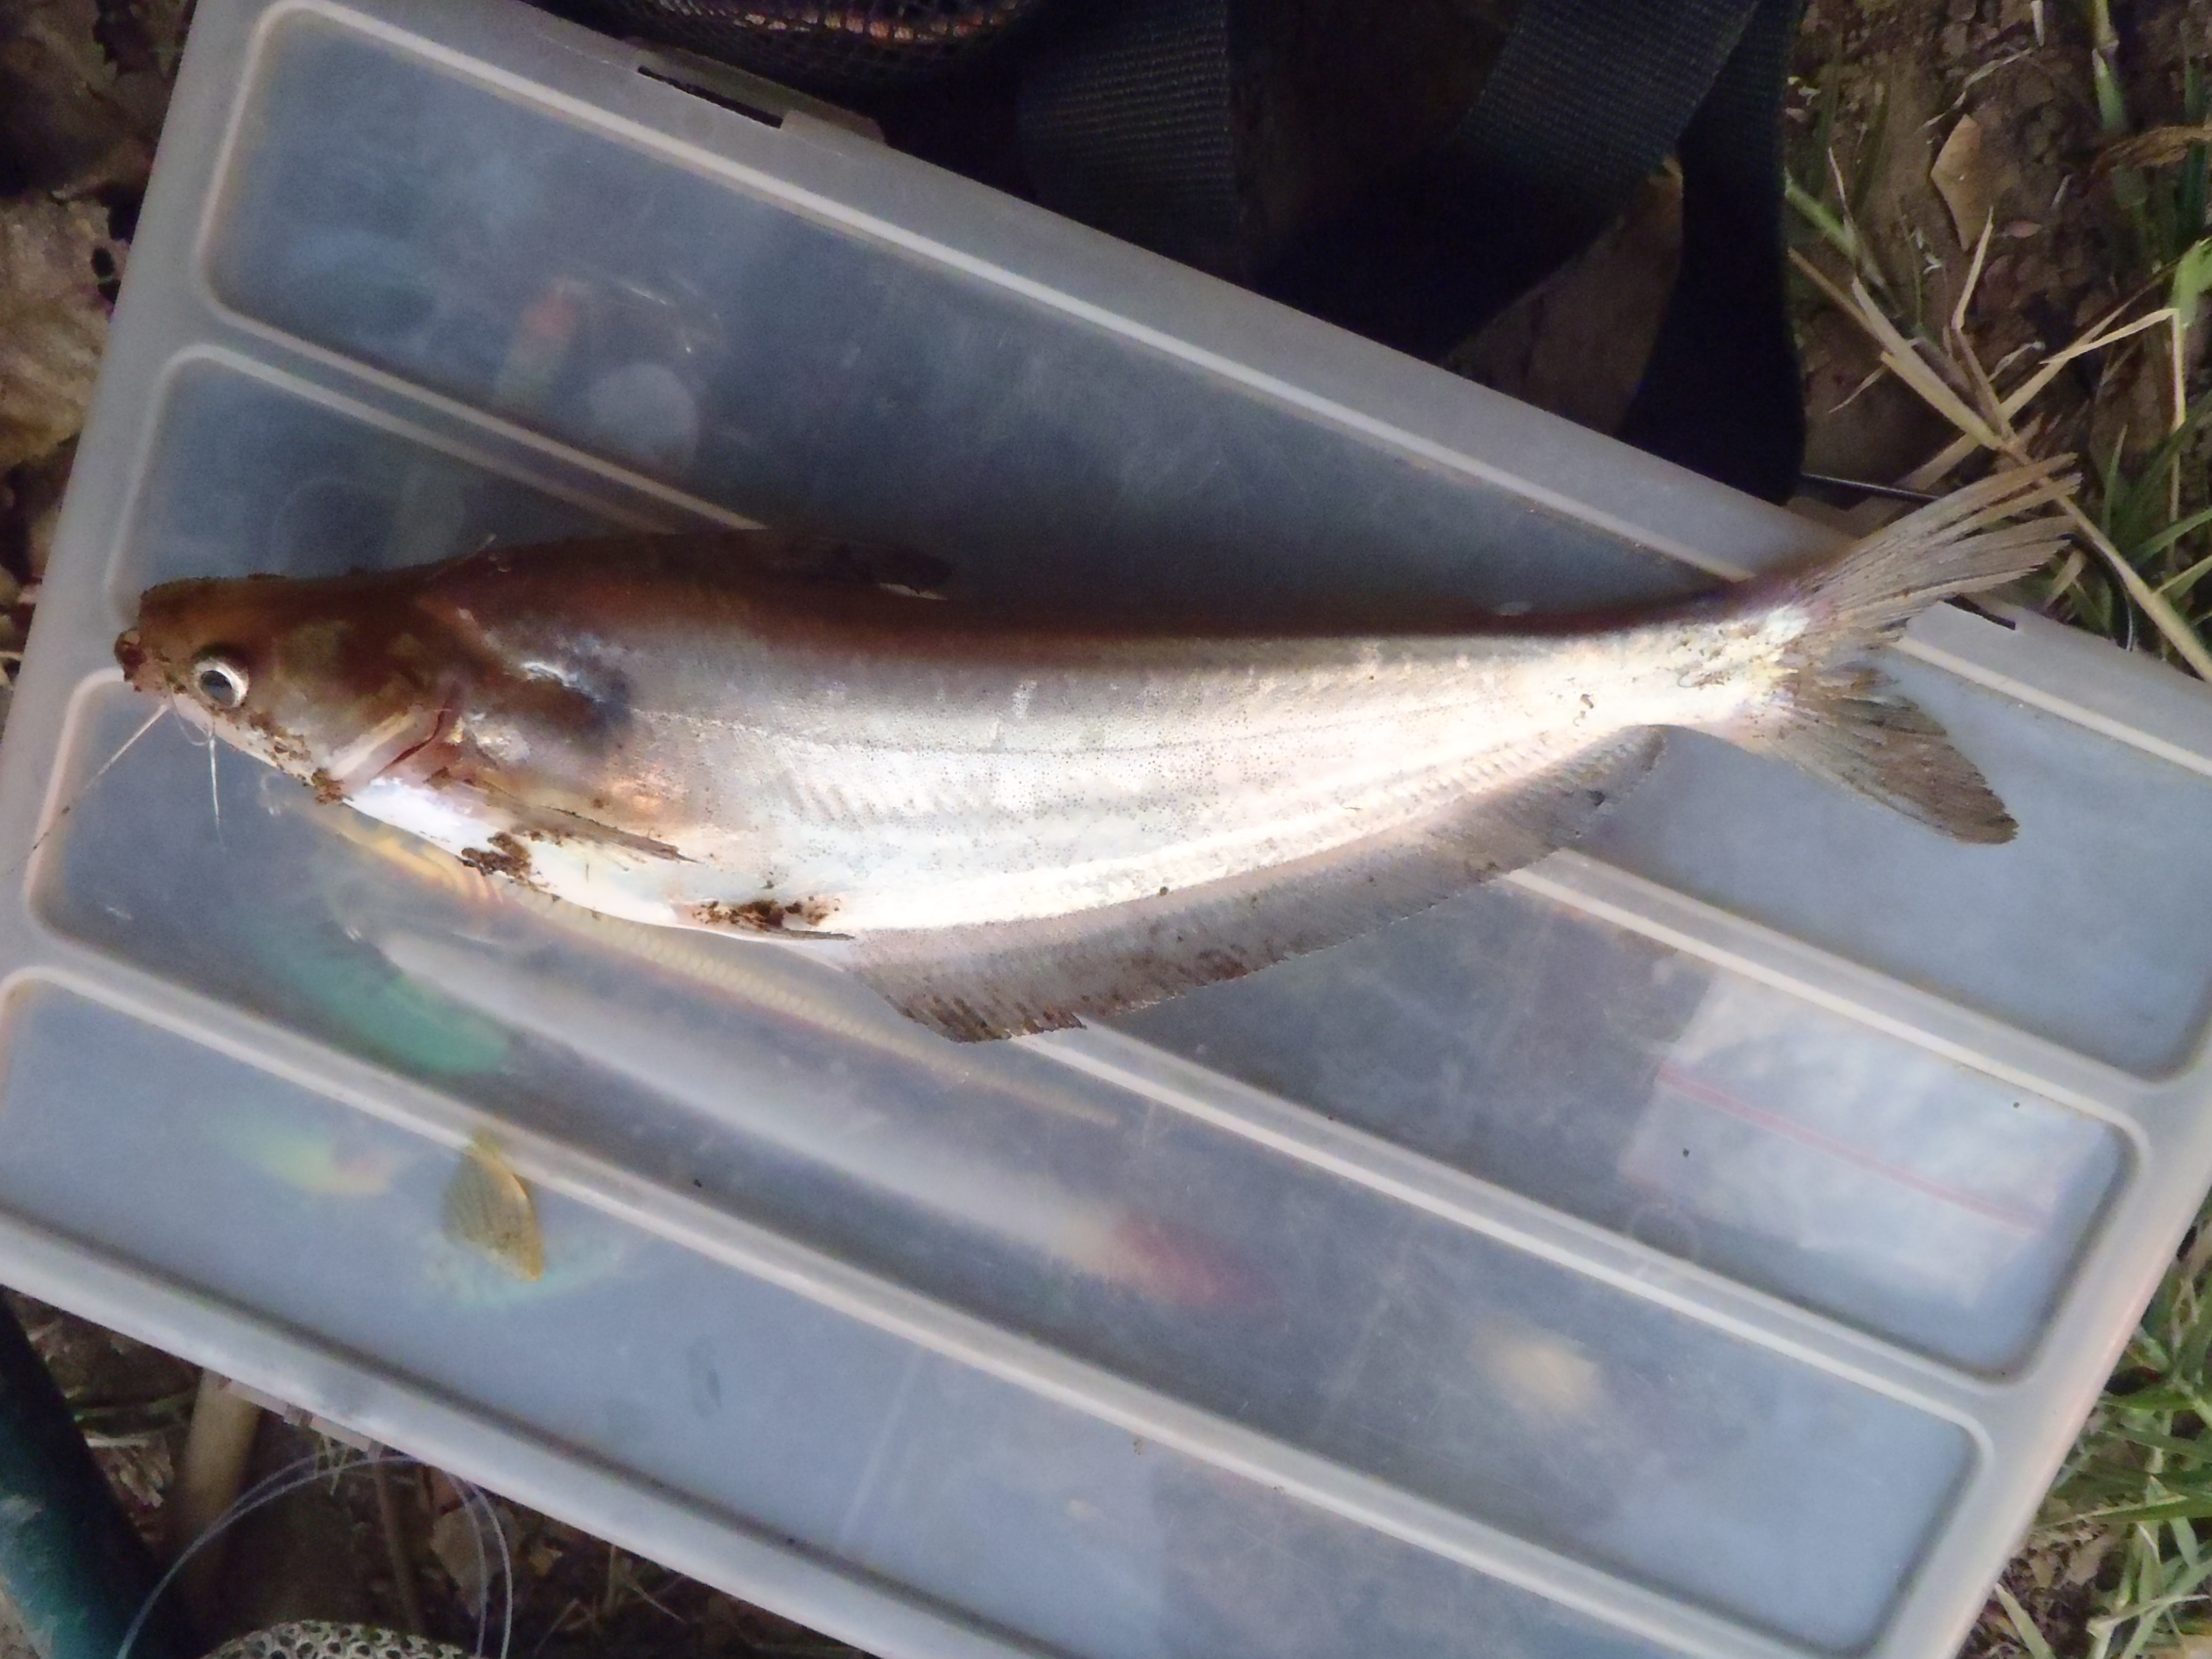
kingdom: Animalia
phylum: Chordata
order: Siluriformes
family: Schilbeidae
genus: Schilbe
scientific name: Schilbe intermedius
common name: Silver catfish
